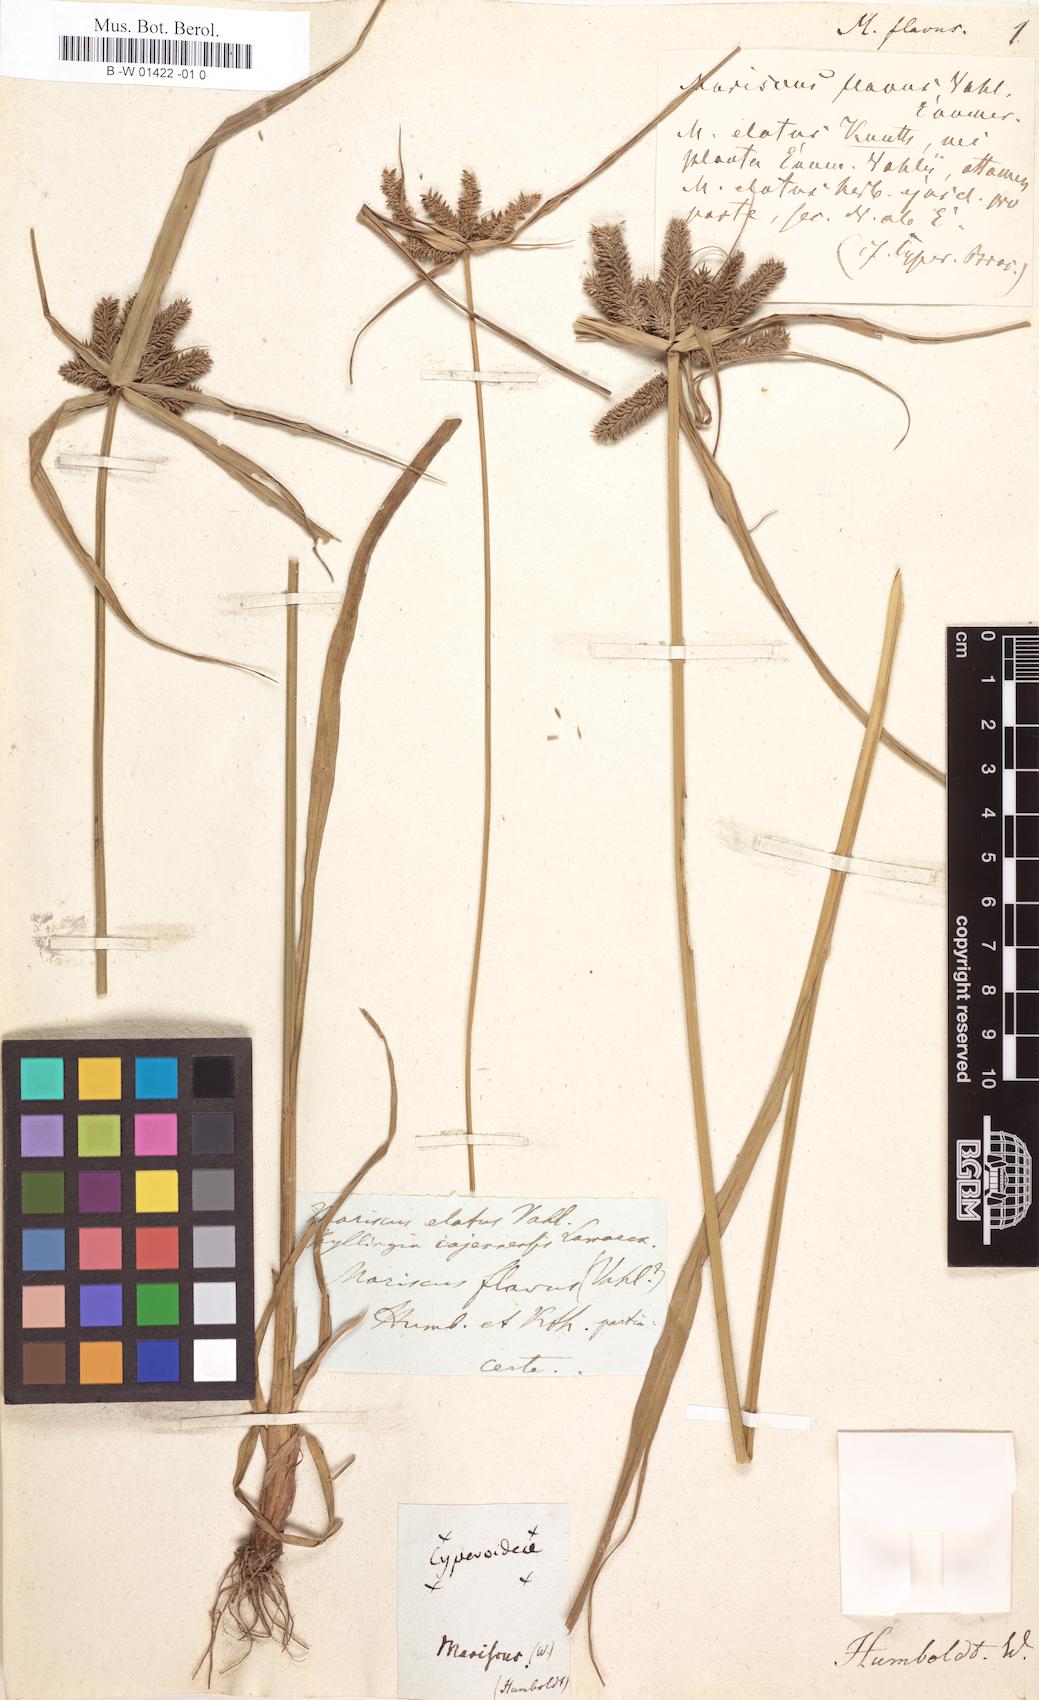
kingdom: Plantae
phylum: Tracheophyta
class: Liliopsida
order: Poales
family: Cyperaceae
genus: Cyperus
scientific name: Cyperus aggregatus
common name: Inflatedscale flatsedge
